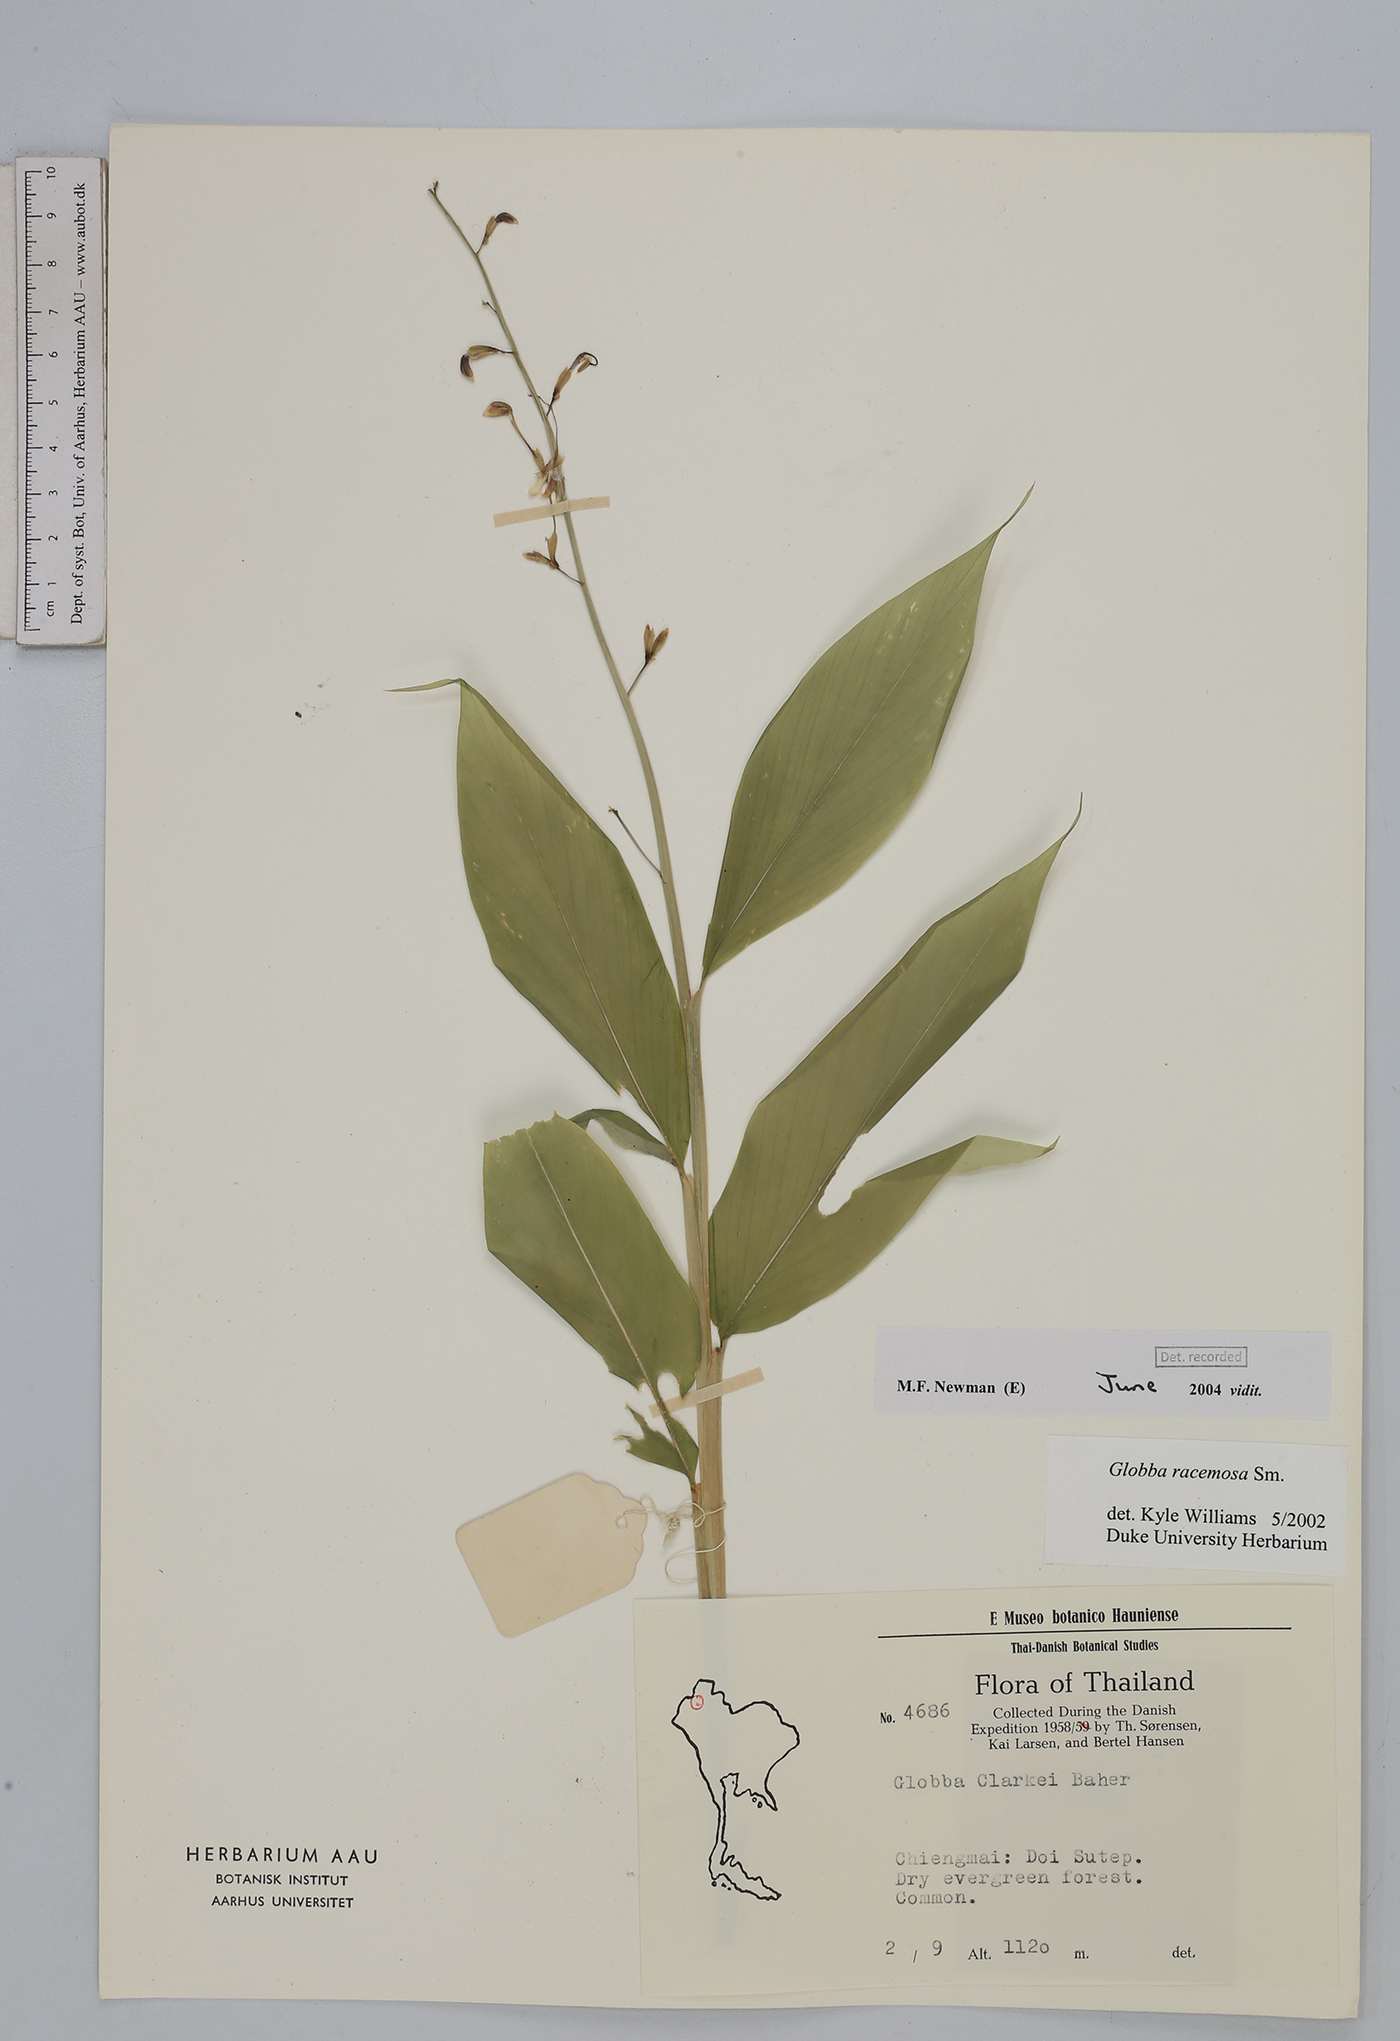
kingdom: Plantae
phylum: Tracheophyta
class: Liliopsida
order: Zingiberales
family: Zingiberaceae
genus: Globba
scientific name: Globba racemosa
